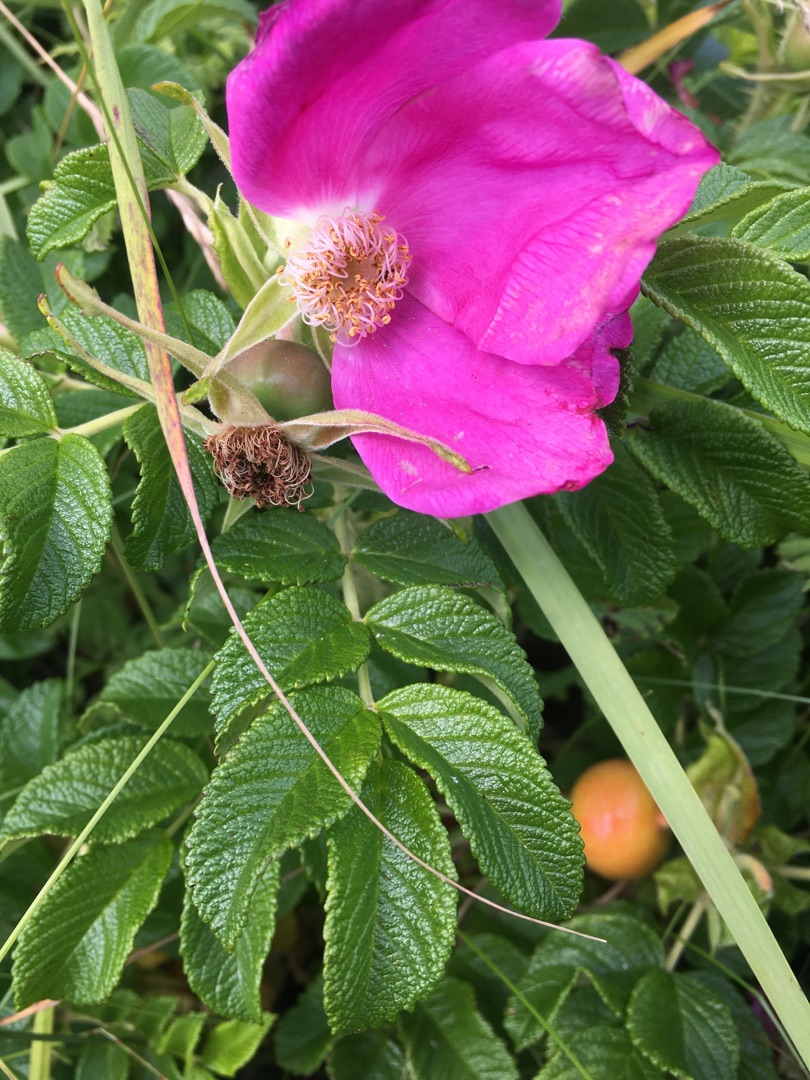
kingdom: Plantae
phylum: Tracheophyta
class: Magnoliopsida
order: Rosales
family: Rosaceae
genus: Rosa
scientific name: Rosa rugosa
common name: Rynket rose
